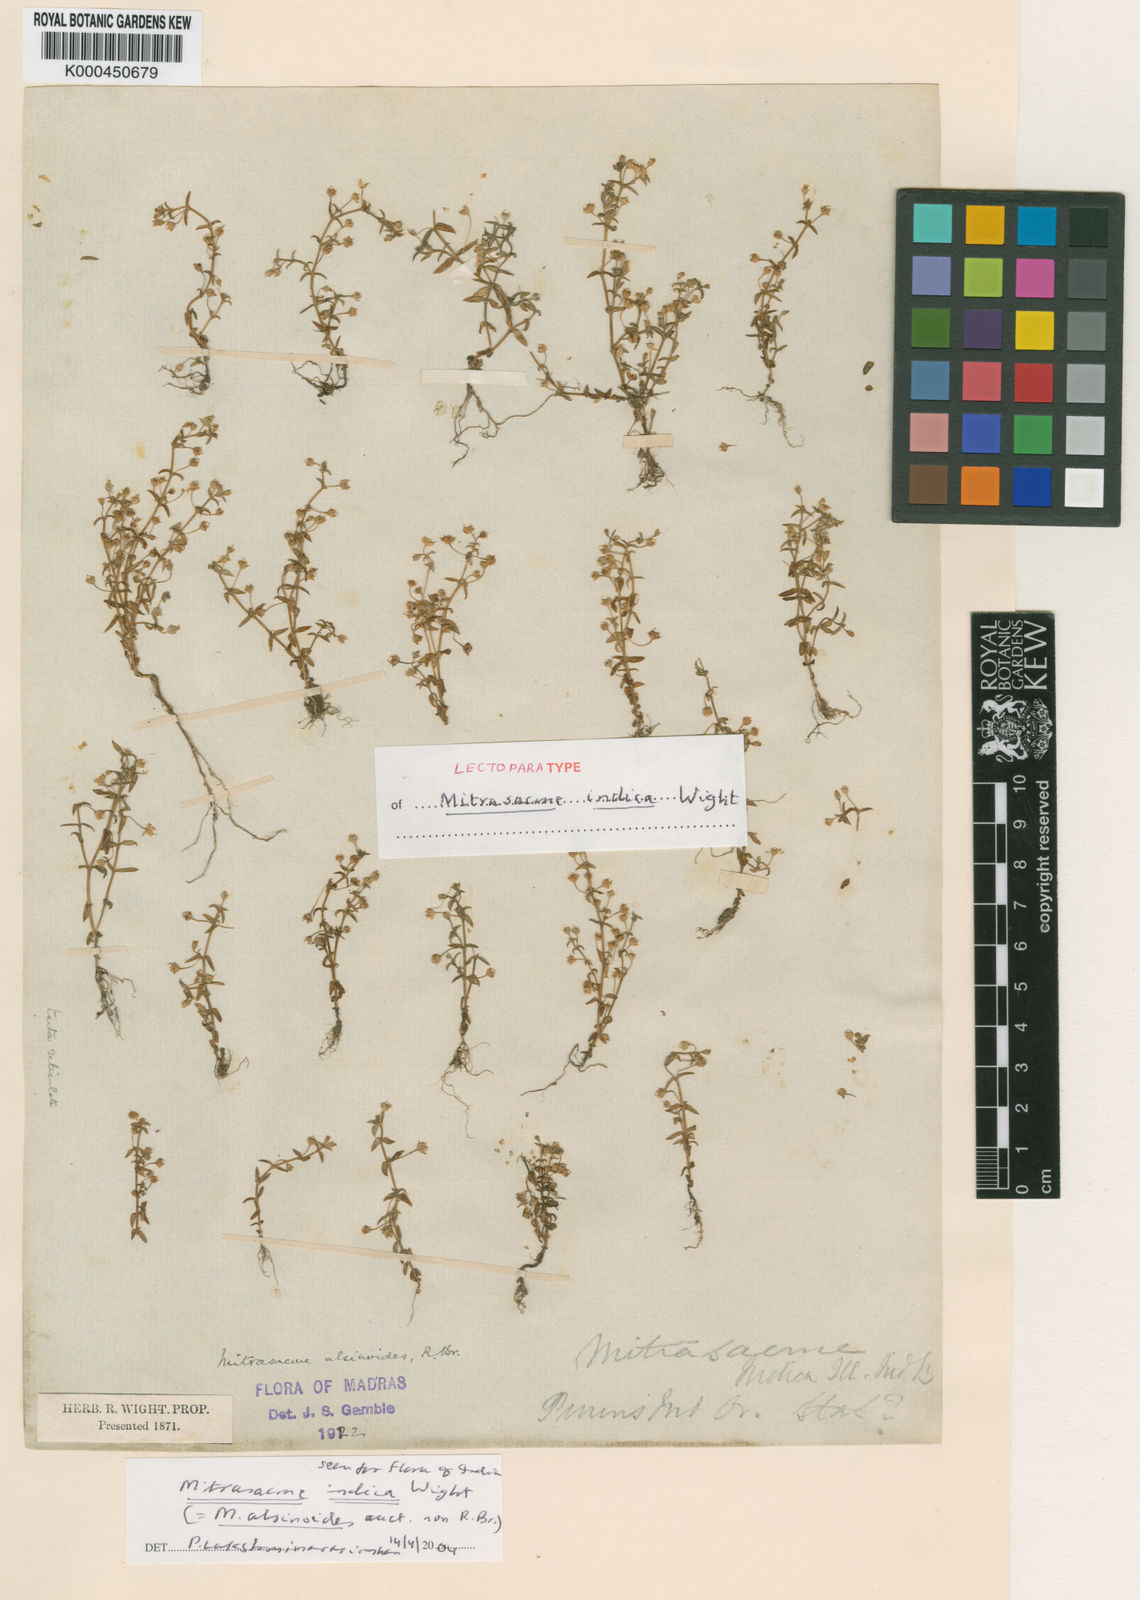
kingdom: Plantae
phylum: Tracheophyta
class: Magnoliopsida
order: Gentianales
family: Loganiaceae
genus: Mitrasacme
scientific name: Mitrasacme prolifera
